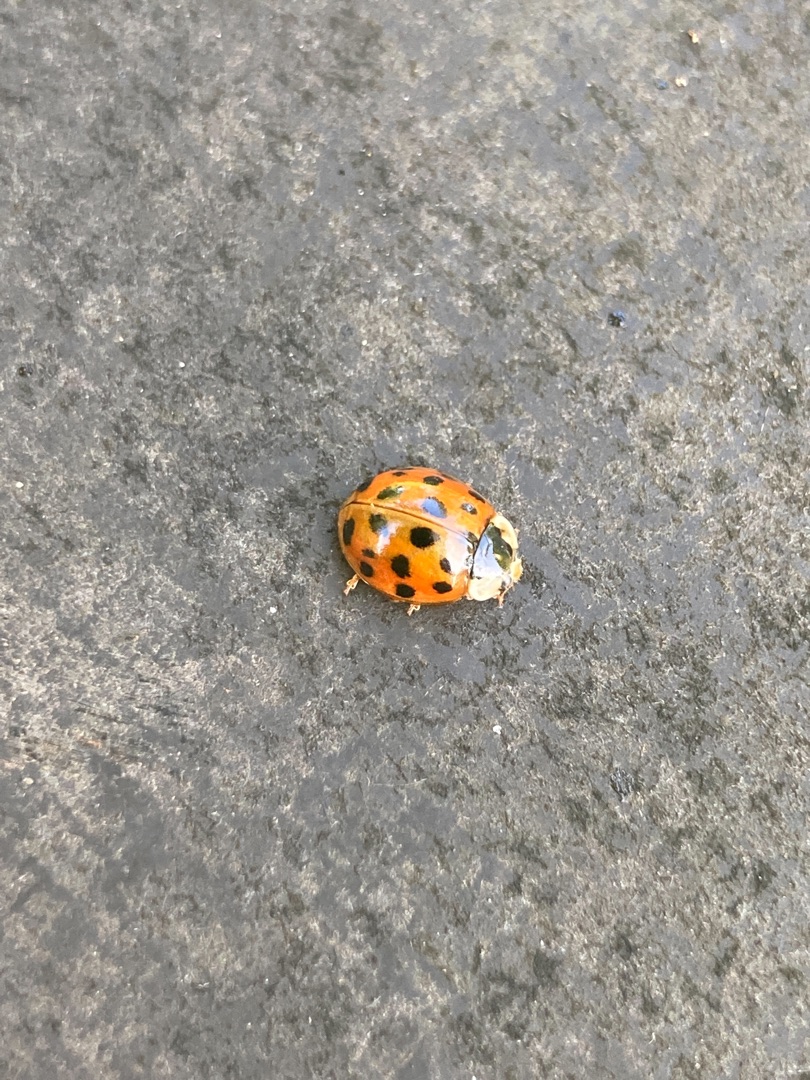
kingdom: Animalia
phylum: Arthropoda
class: Insecta
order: Coleoptera
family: Coccinellidae
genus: Harmonia
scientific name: Harmonia axyridis
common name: Harlekinmariehøne
